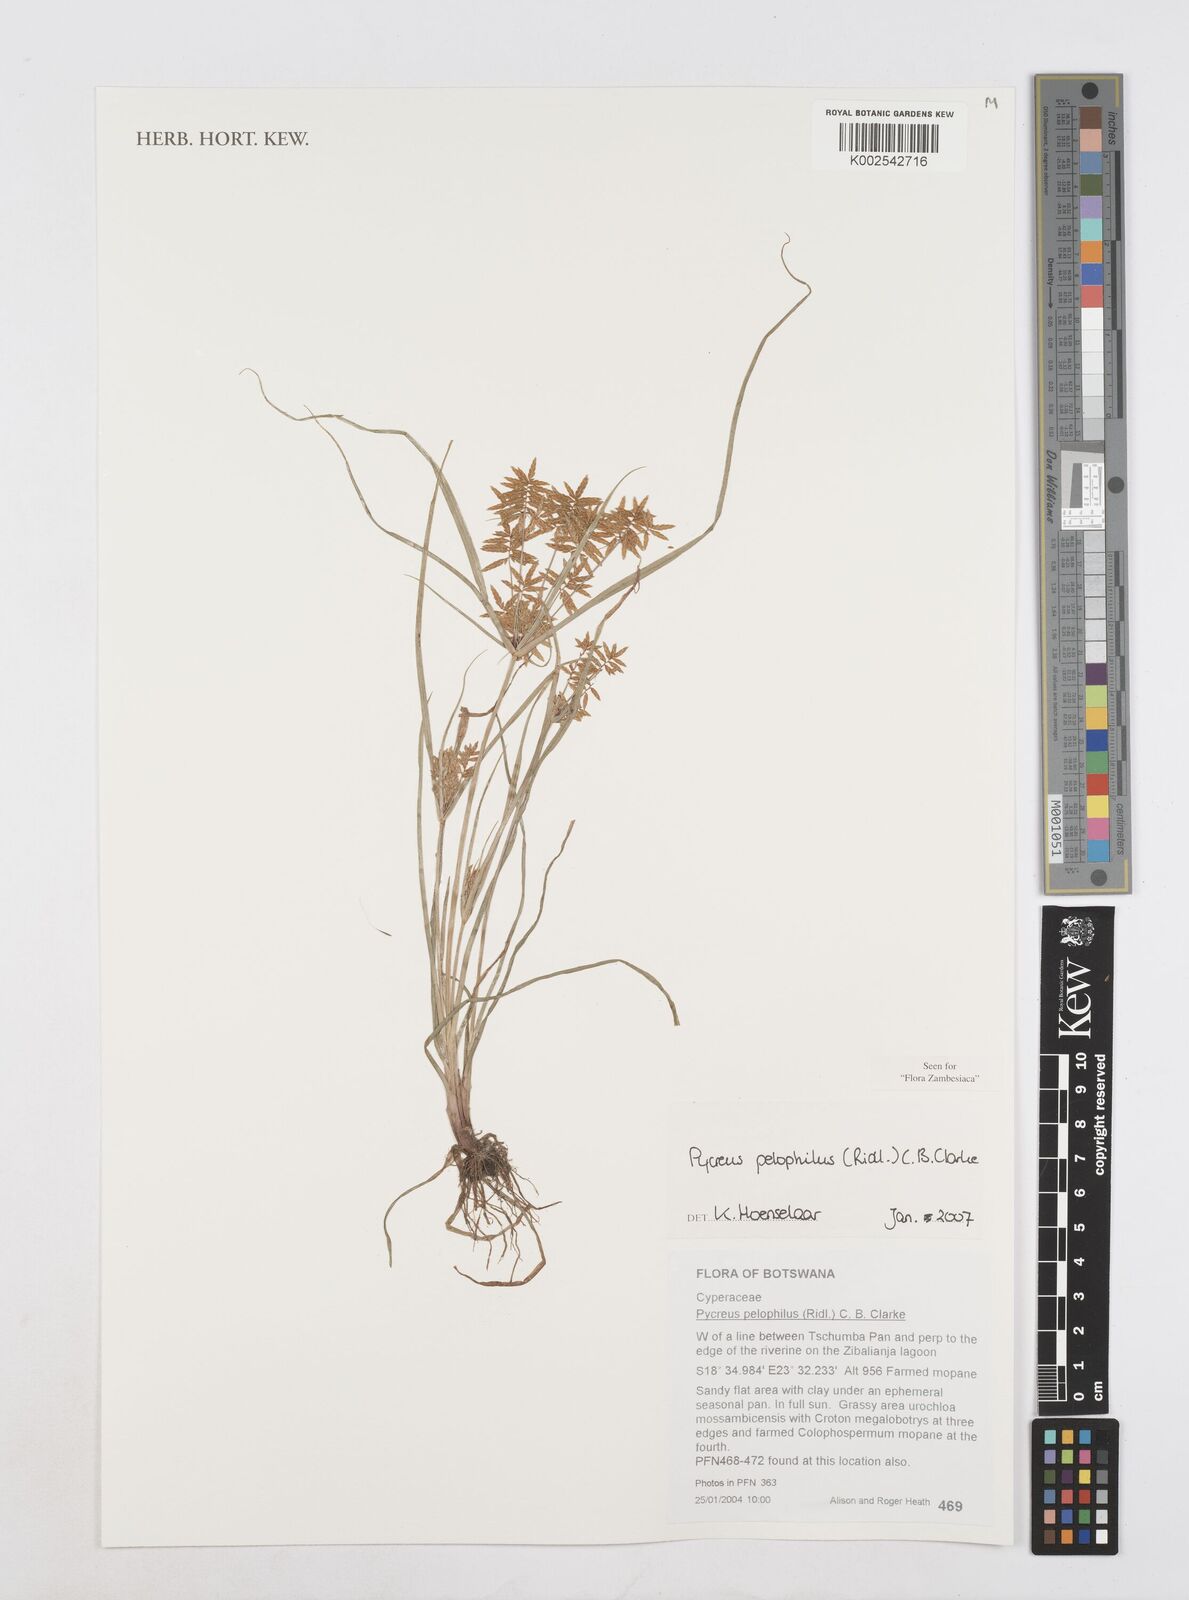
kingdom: Plantae
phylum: Tracheophyta
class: Liliopsida
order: Poales
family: Cyperaceae
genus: Cyperus
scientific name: Cyperus pelophilus
